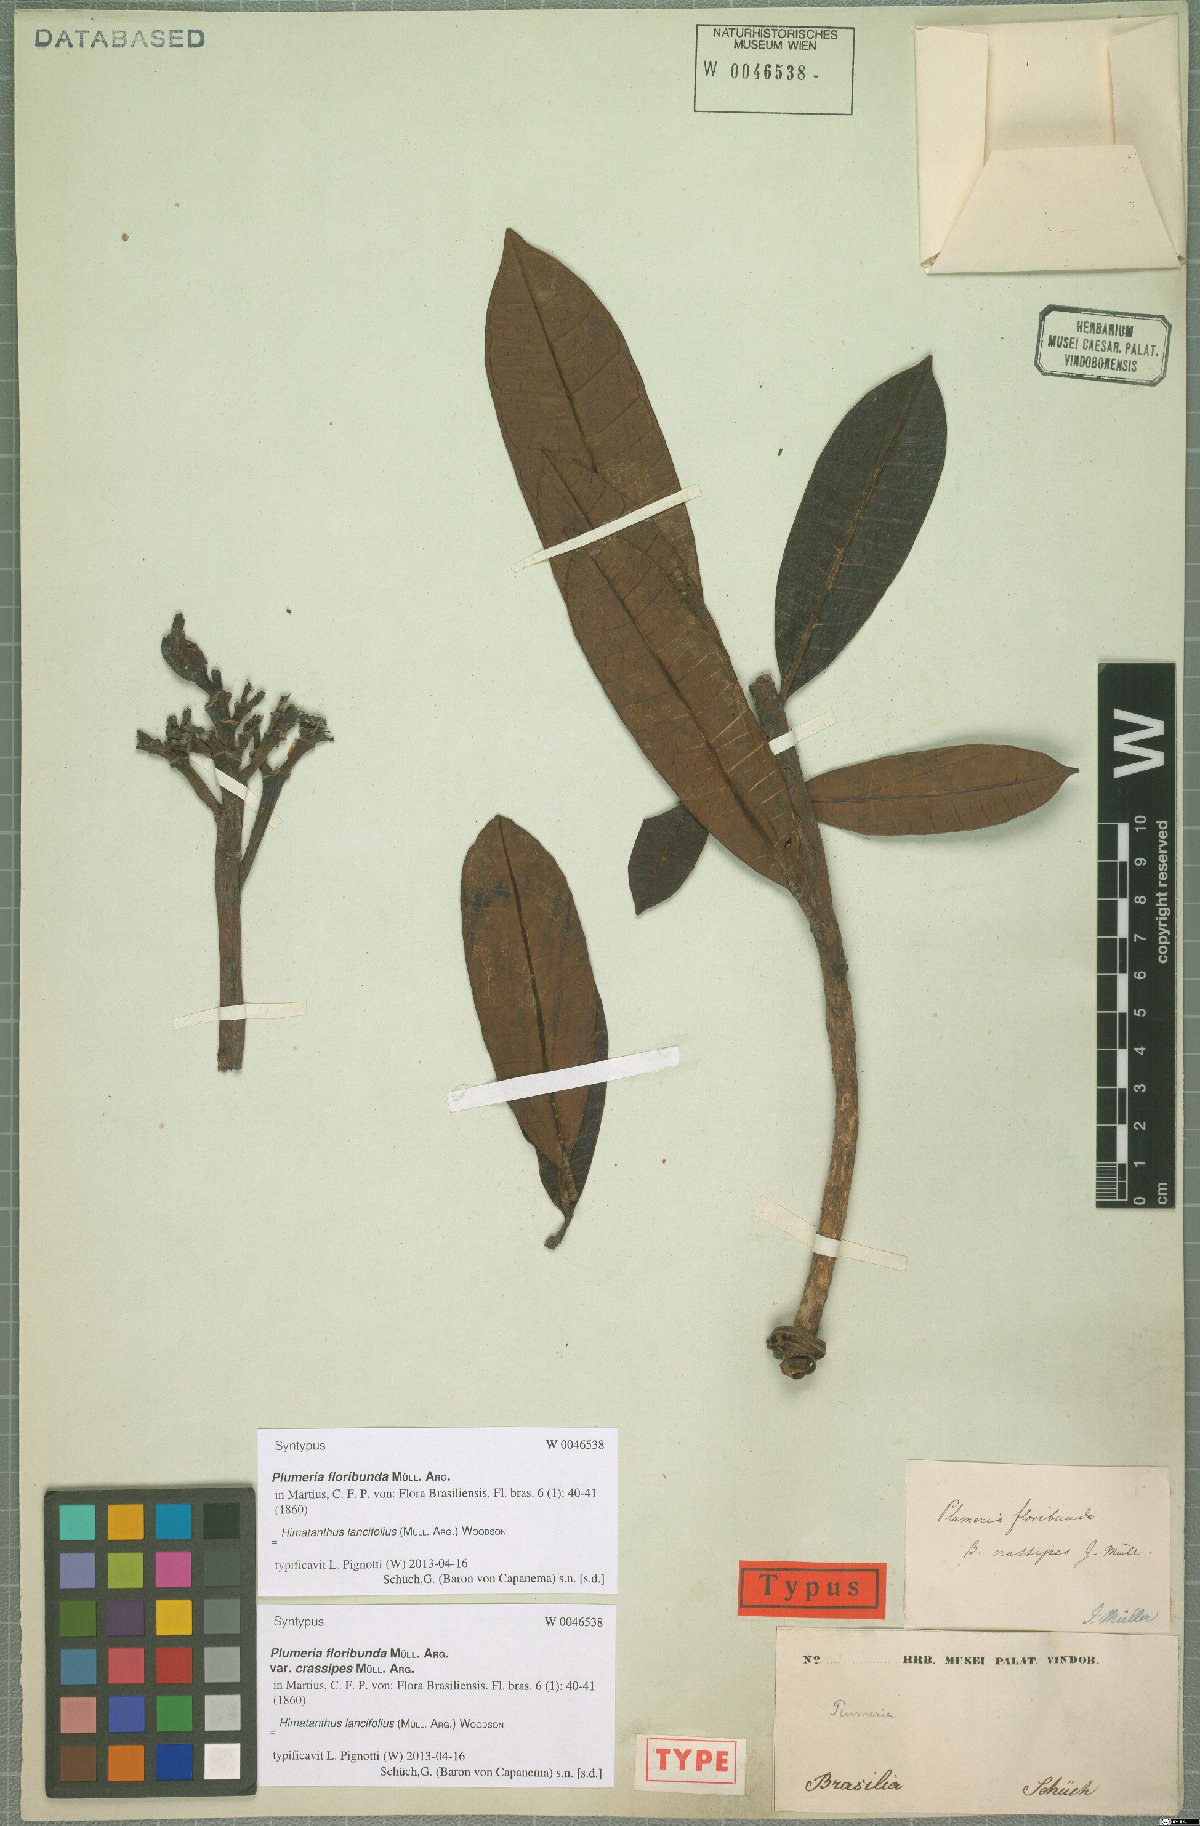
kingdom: Plantae
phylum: Tracheophyta
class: Magnoliopsida
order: Gentianales
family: Apocynaceae
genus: Himatanthus
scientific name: Himatanthus bracteatus
